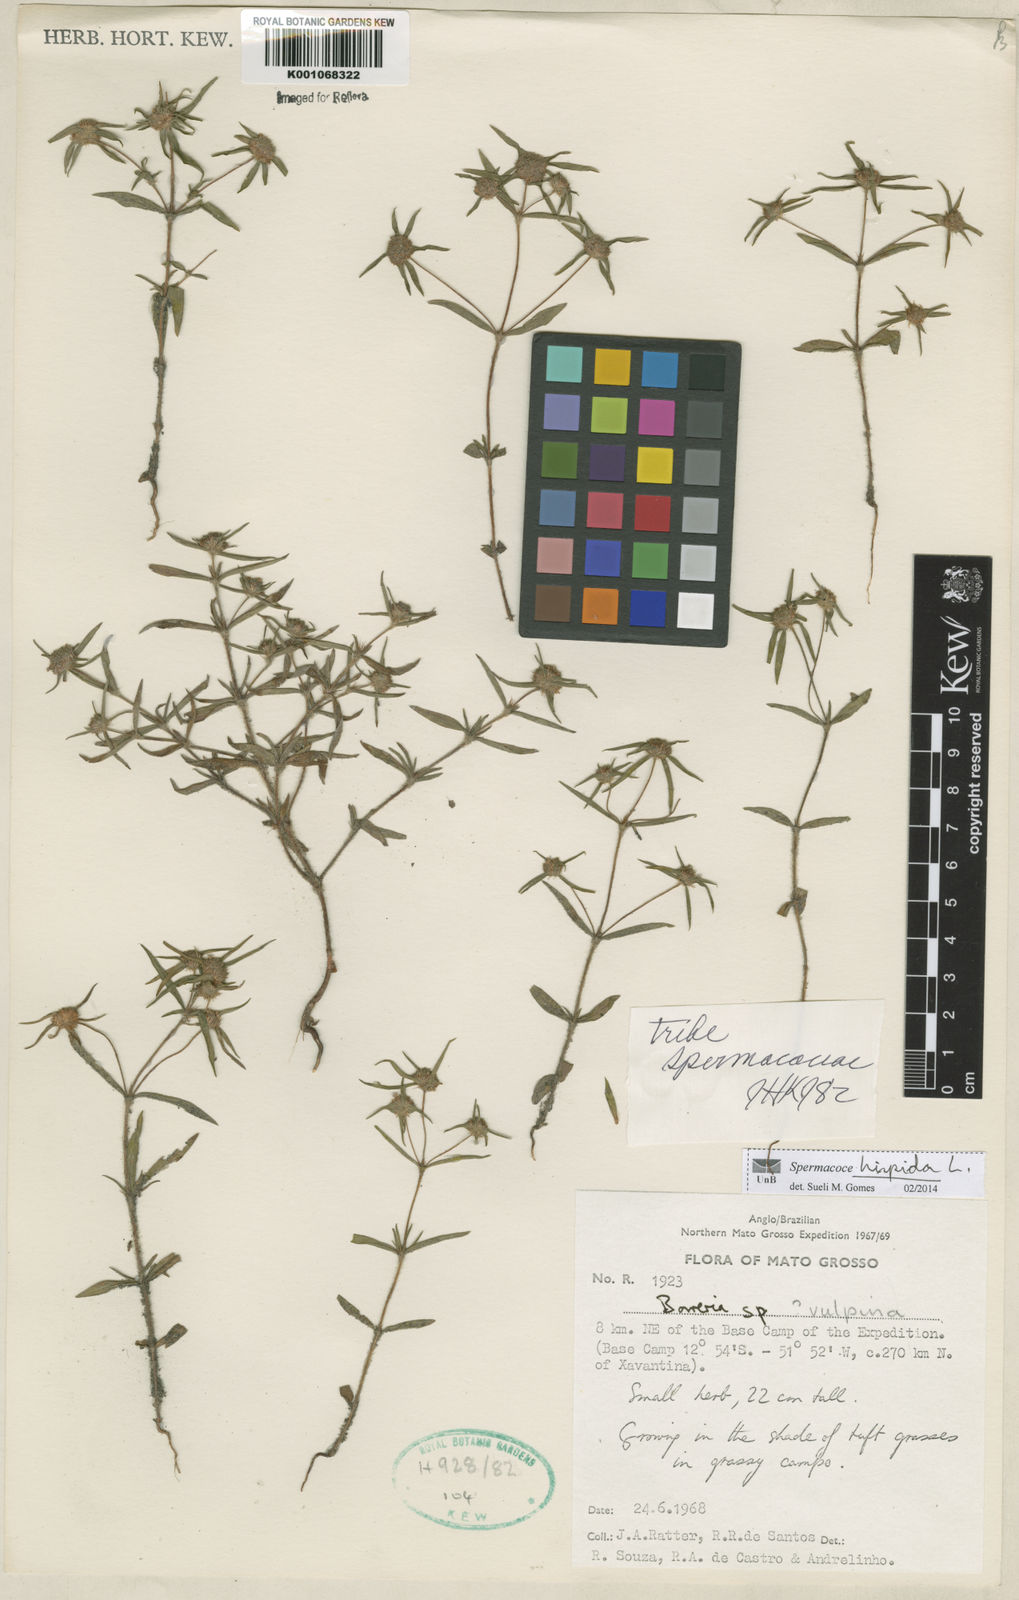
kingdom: Plantae
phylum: Tracheophyta
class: Magnoliopsida
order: Gentianales
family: Rubiaceae
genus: Spermacoce
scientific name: Spermacoce hispida
